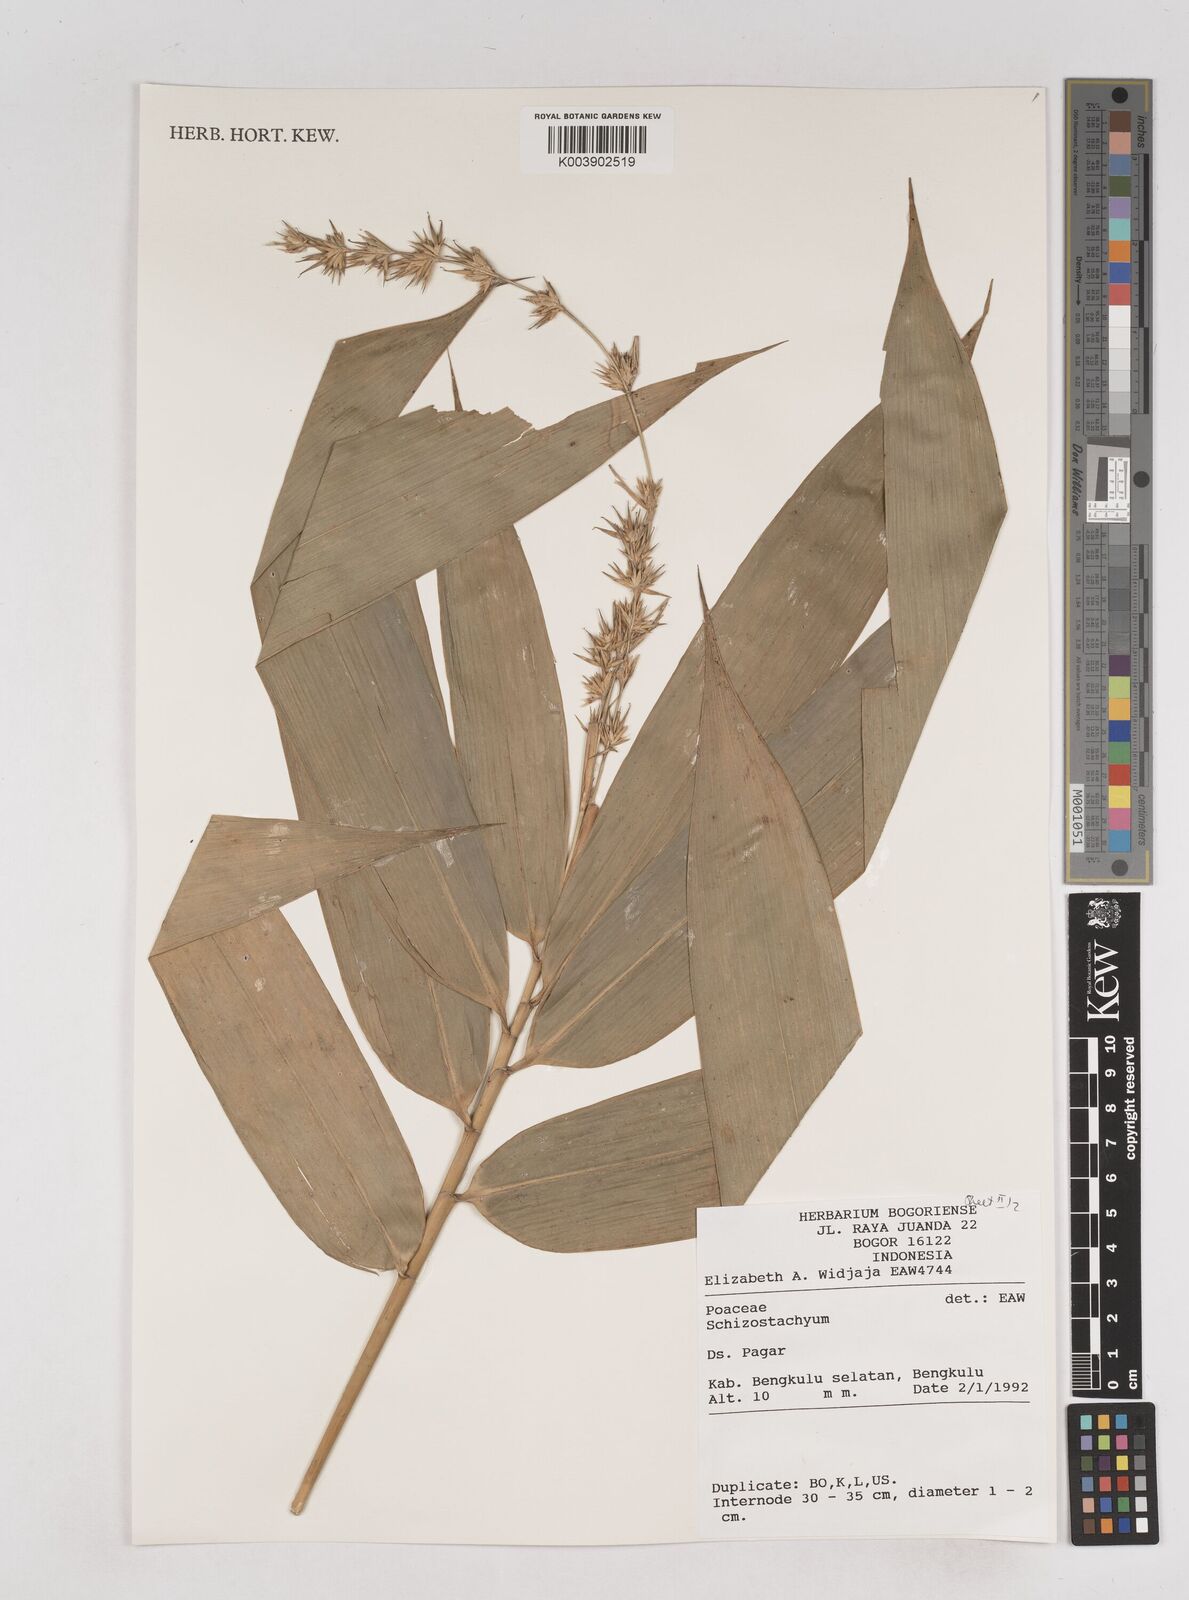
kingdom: Plantae
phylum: Tracheophyta
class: Liliopsida
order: Poales
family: Poaceae
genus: Schizostachyum
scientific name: Schizostachyum
